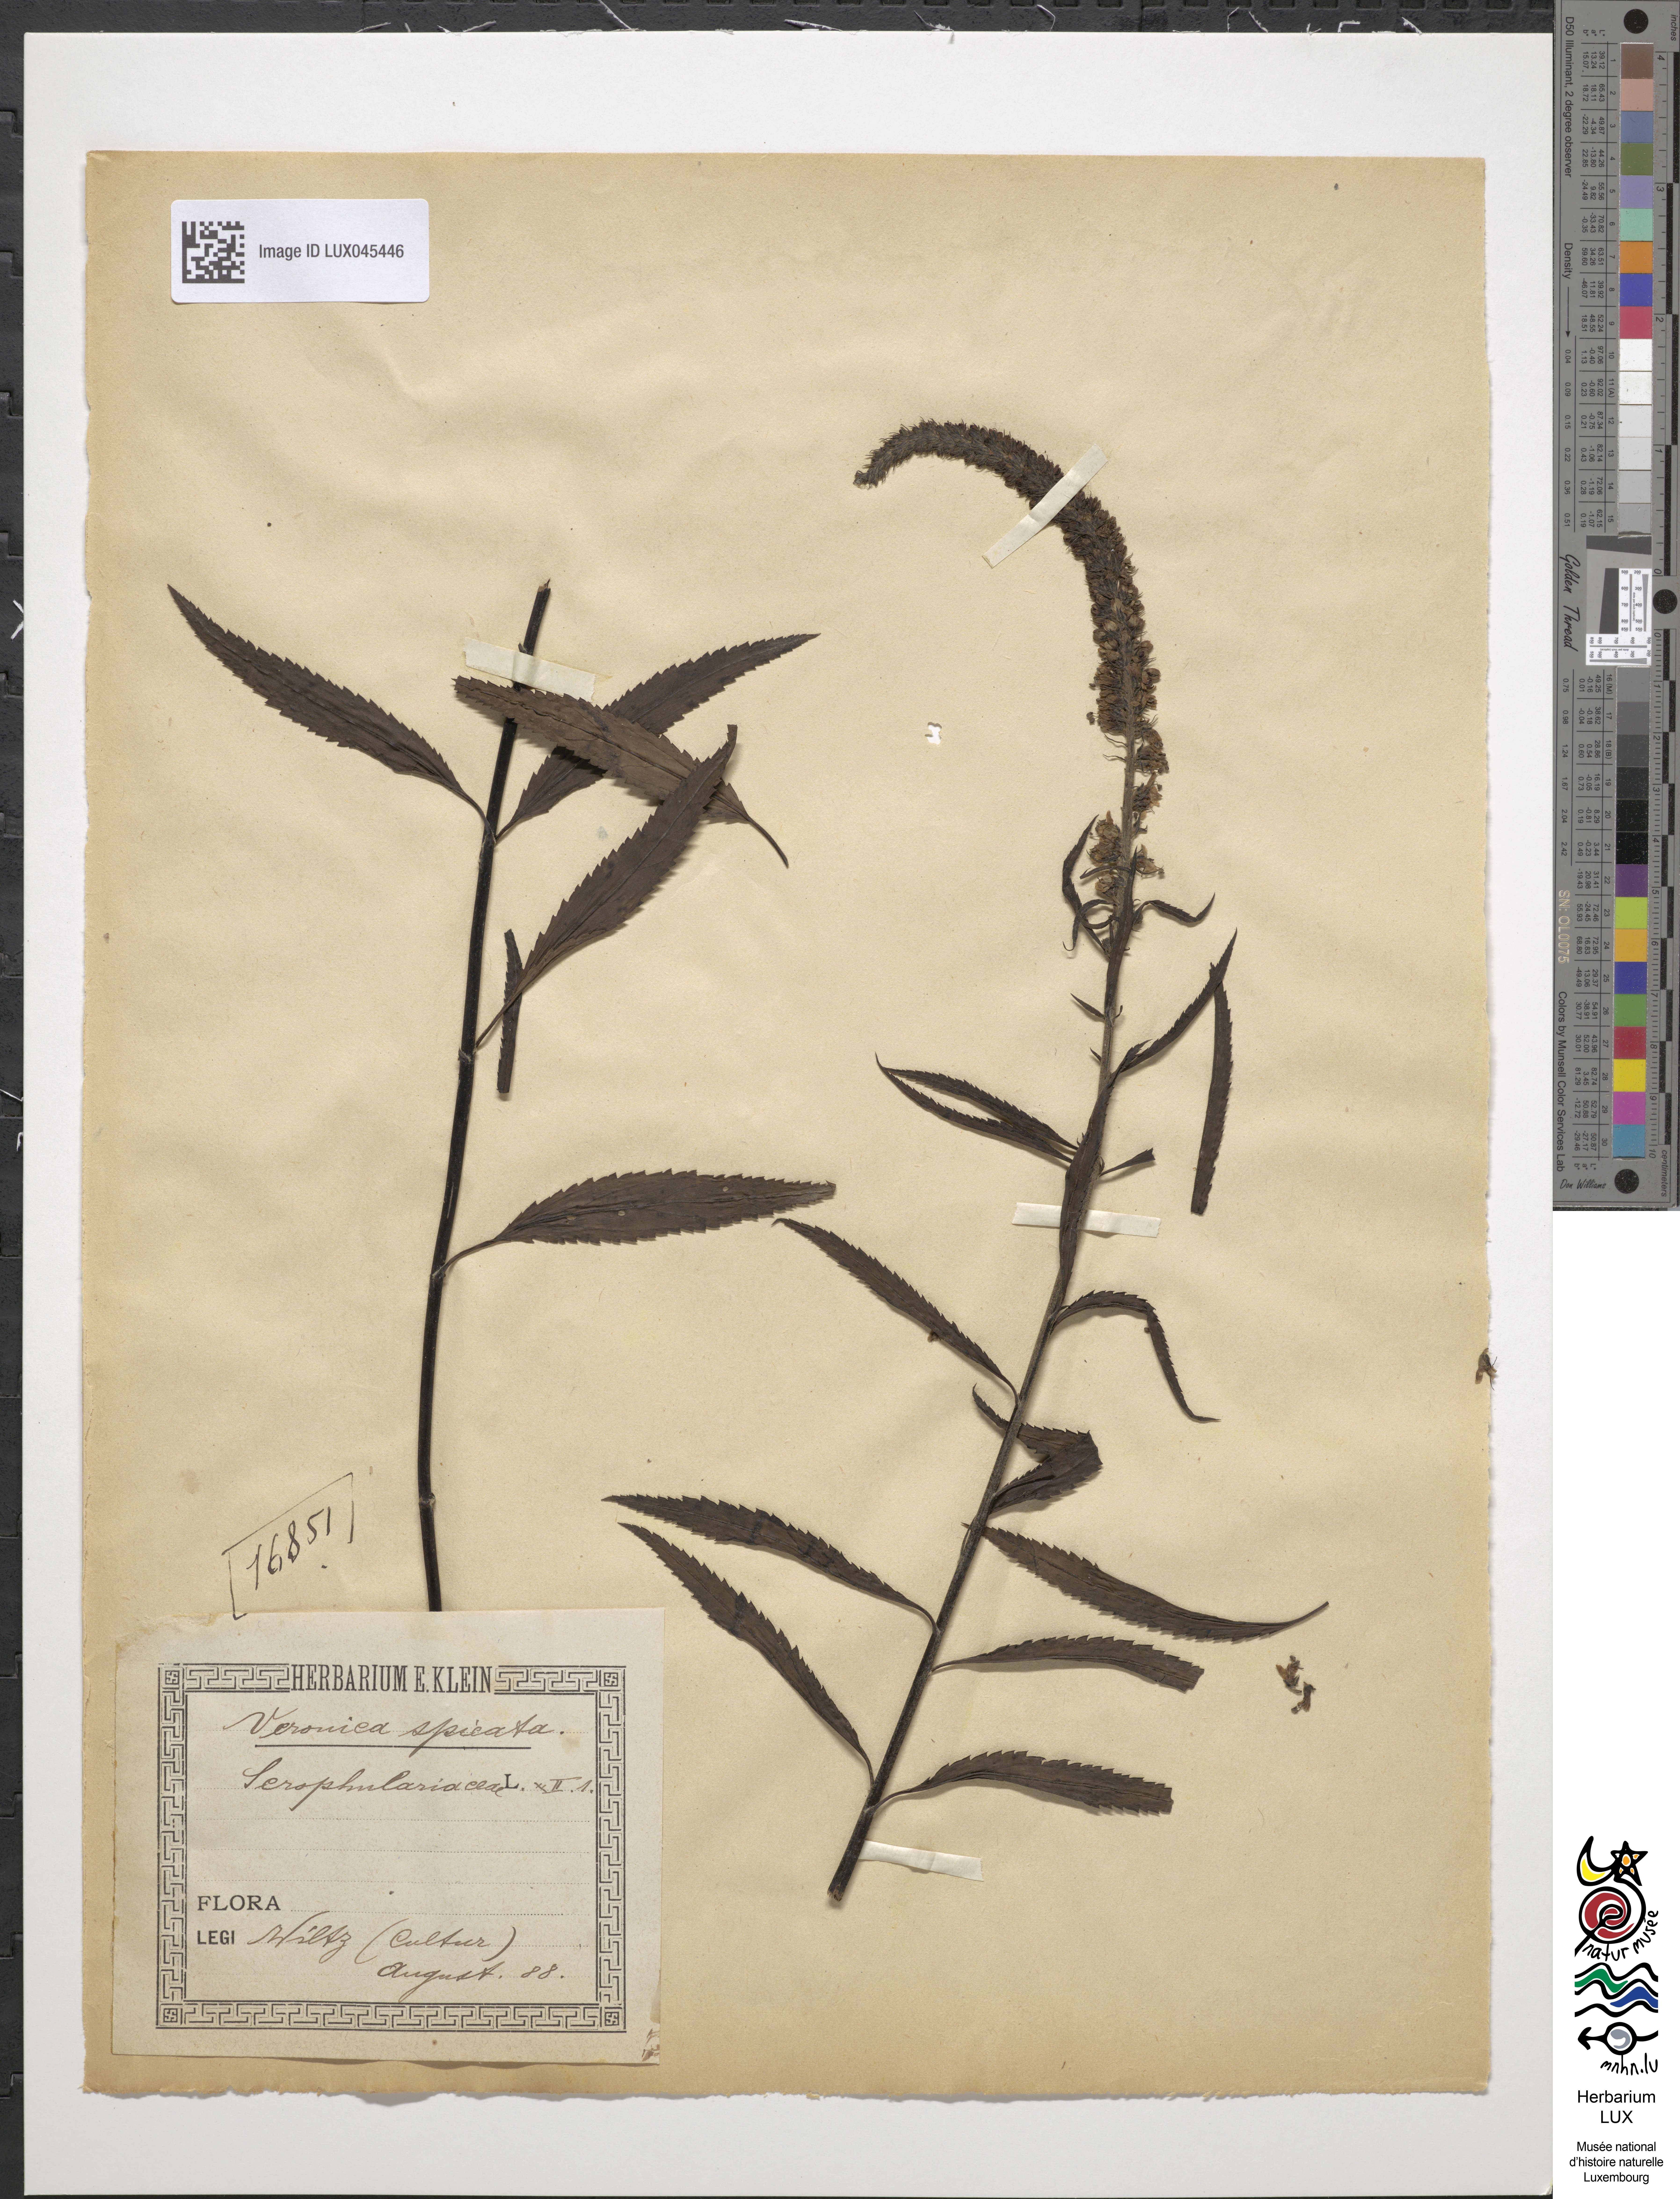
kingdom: Plantae
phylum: Tracheophyta
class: Magnoliopsida
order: Lamiales
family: Plantaginaceae
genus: Veronica
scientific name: Veronica longifolia
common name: Garden speedwell
